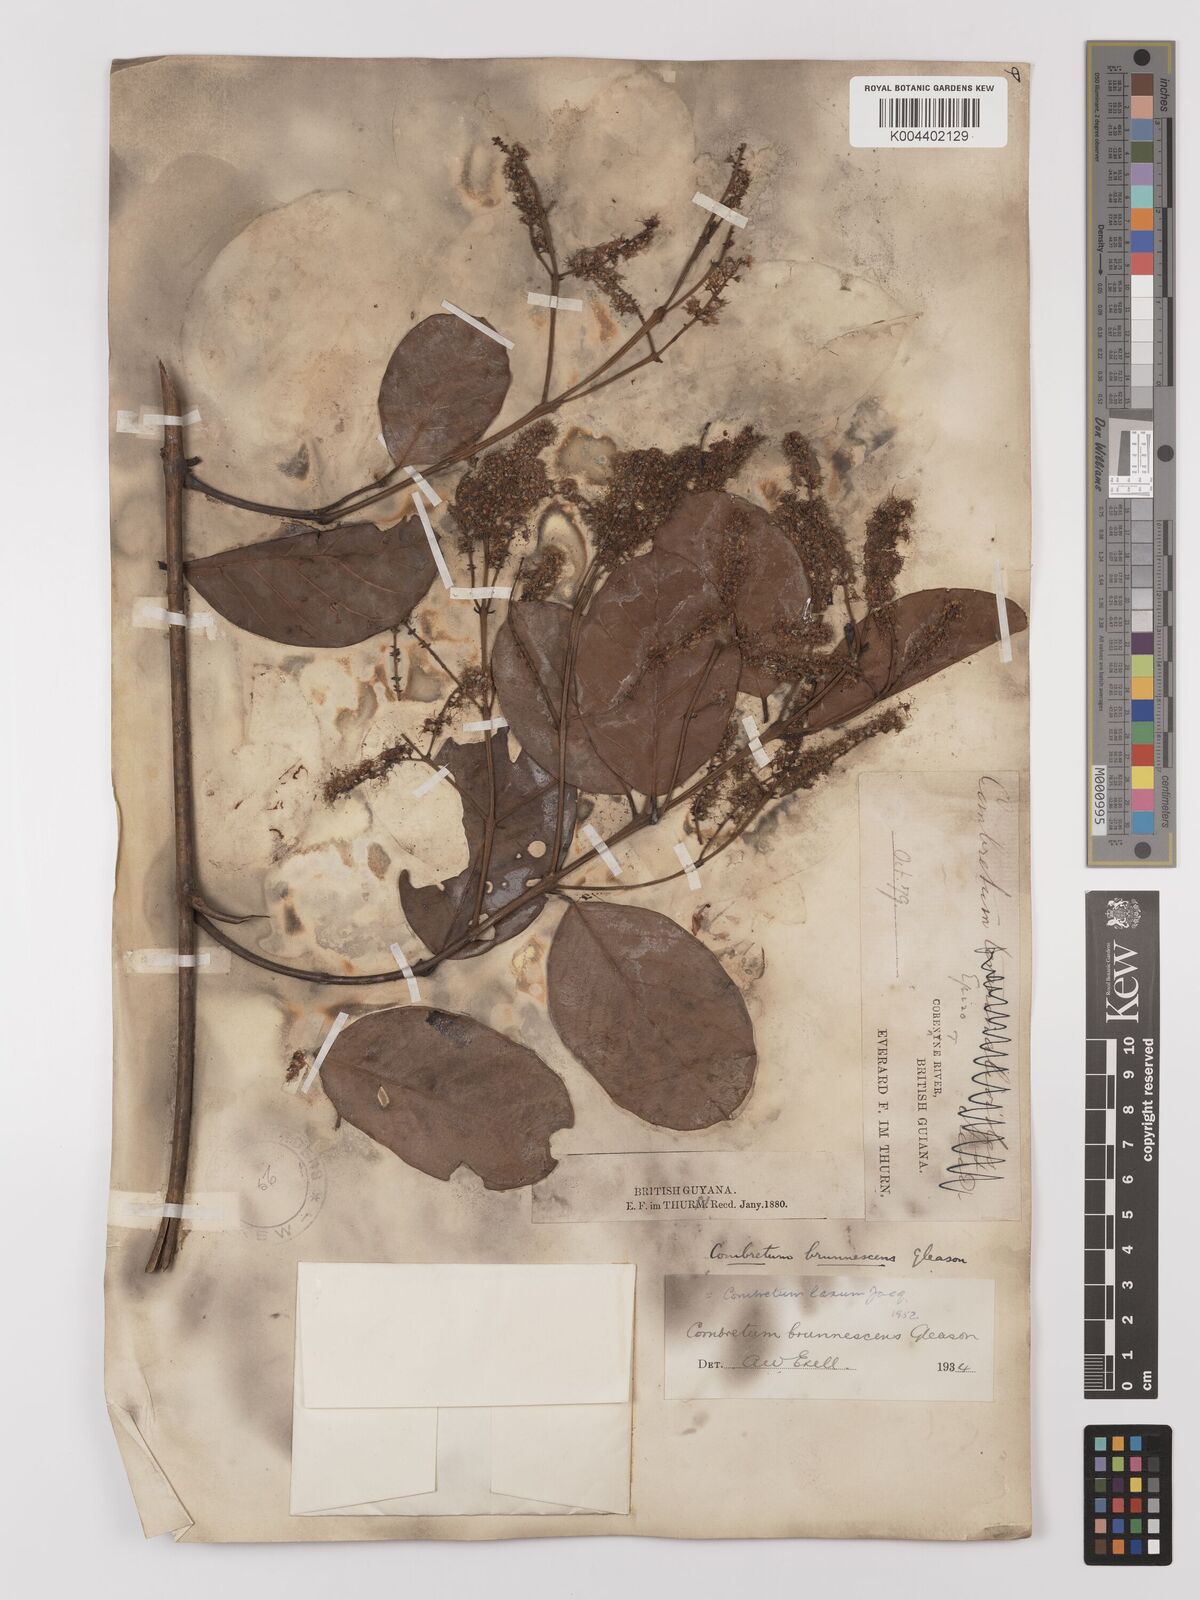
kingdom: Plantae
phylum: Tracheophyta
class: Magnoliopsida
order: Myrtales
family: Combretaceae
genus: Combretum
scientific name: Combretum
